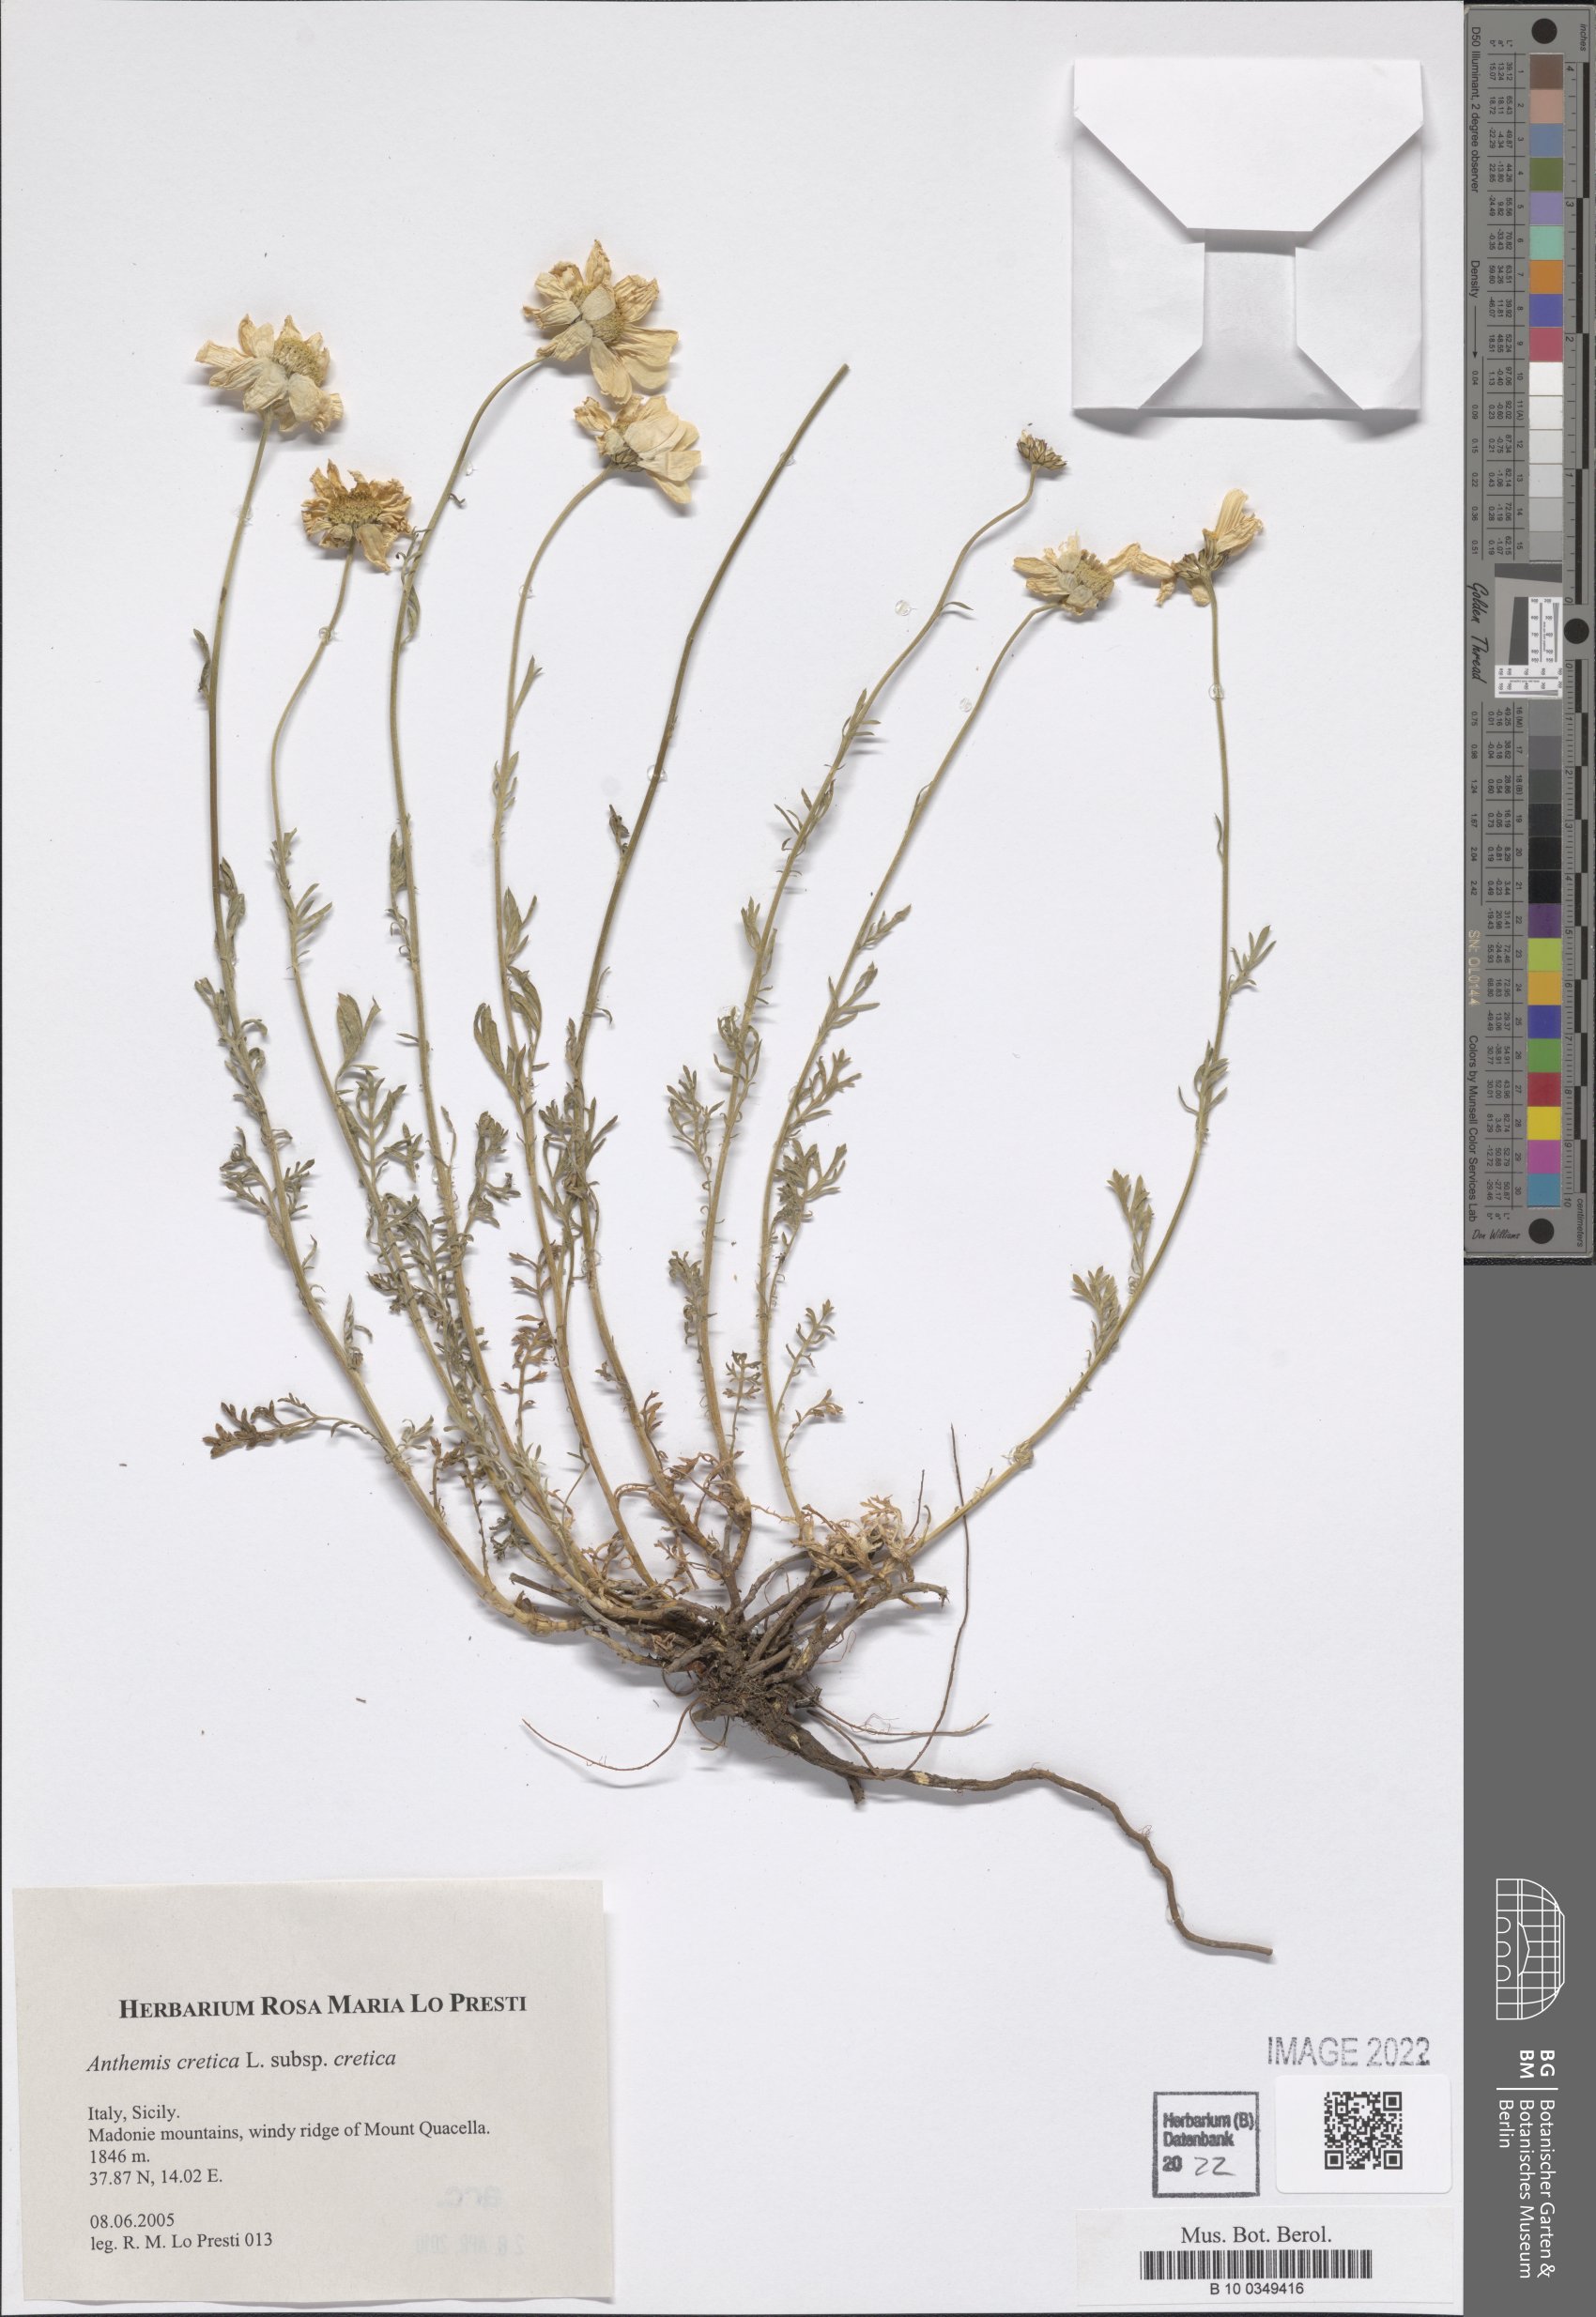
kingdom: Plantae
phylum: Tracheophyta
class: Magnoliopsida
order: Asterales
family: Asteraceae
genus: Anthemis
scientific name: Anthemis cretica
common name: Mountain dog-daisy
